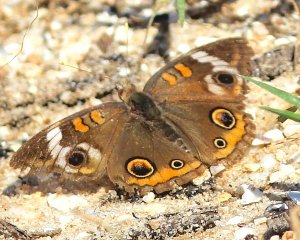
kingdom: Animalia
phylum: Arthropoda
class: Insecta
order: Lepidoptera
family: Nymphalidae
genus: Junonia
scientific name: Junonia coenia
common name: Common Buckeye
